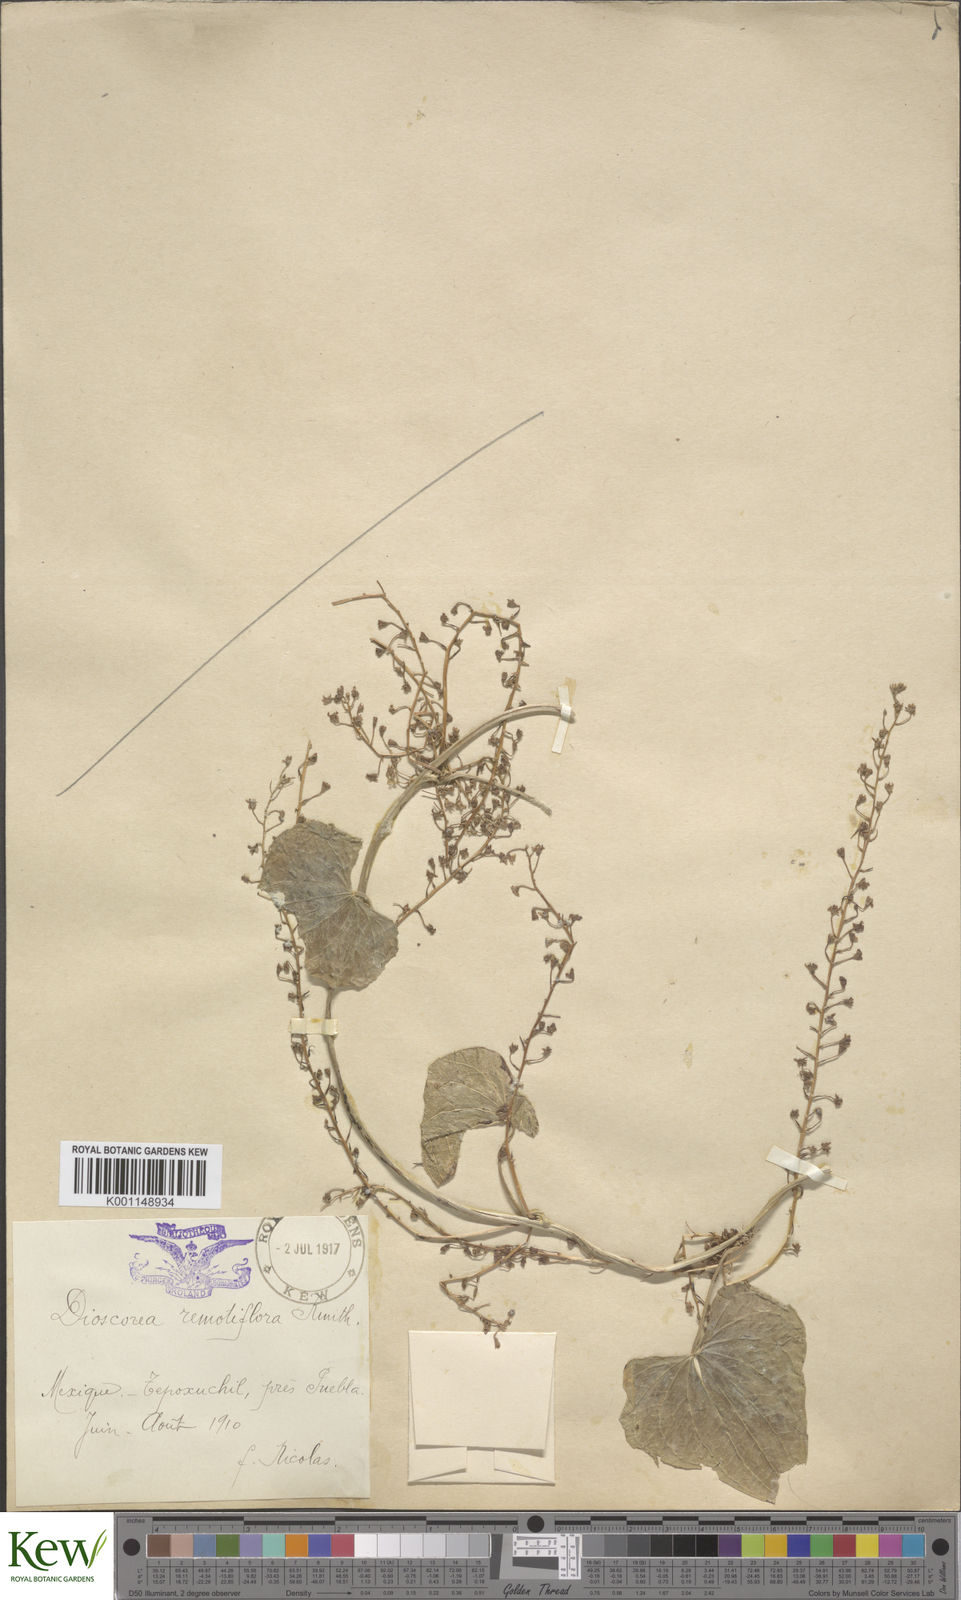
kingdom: Plantae
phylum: Tracheophyta
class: Liliopsida
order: Dioscoreales
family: Dioscoreaceae
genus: Dioscorea
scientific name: Dioscorea remotiflora
